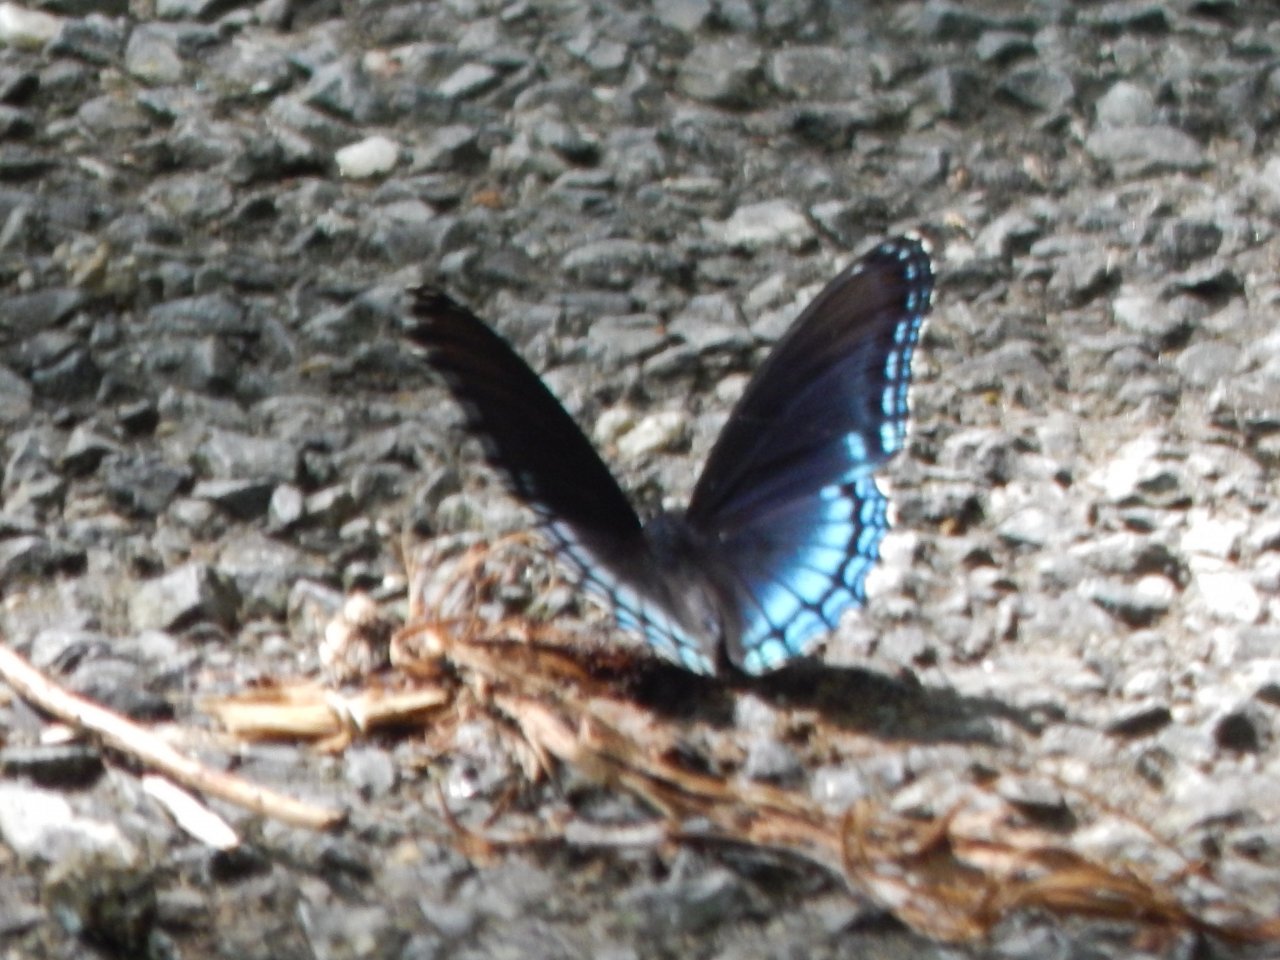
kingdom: Animalia
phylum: Arthropoda
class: Insecta
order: Lepidoptera
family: Nymphalidae
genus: Limenitis
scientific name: Limenitis astyanax
